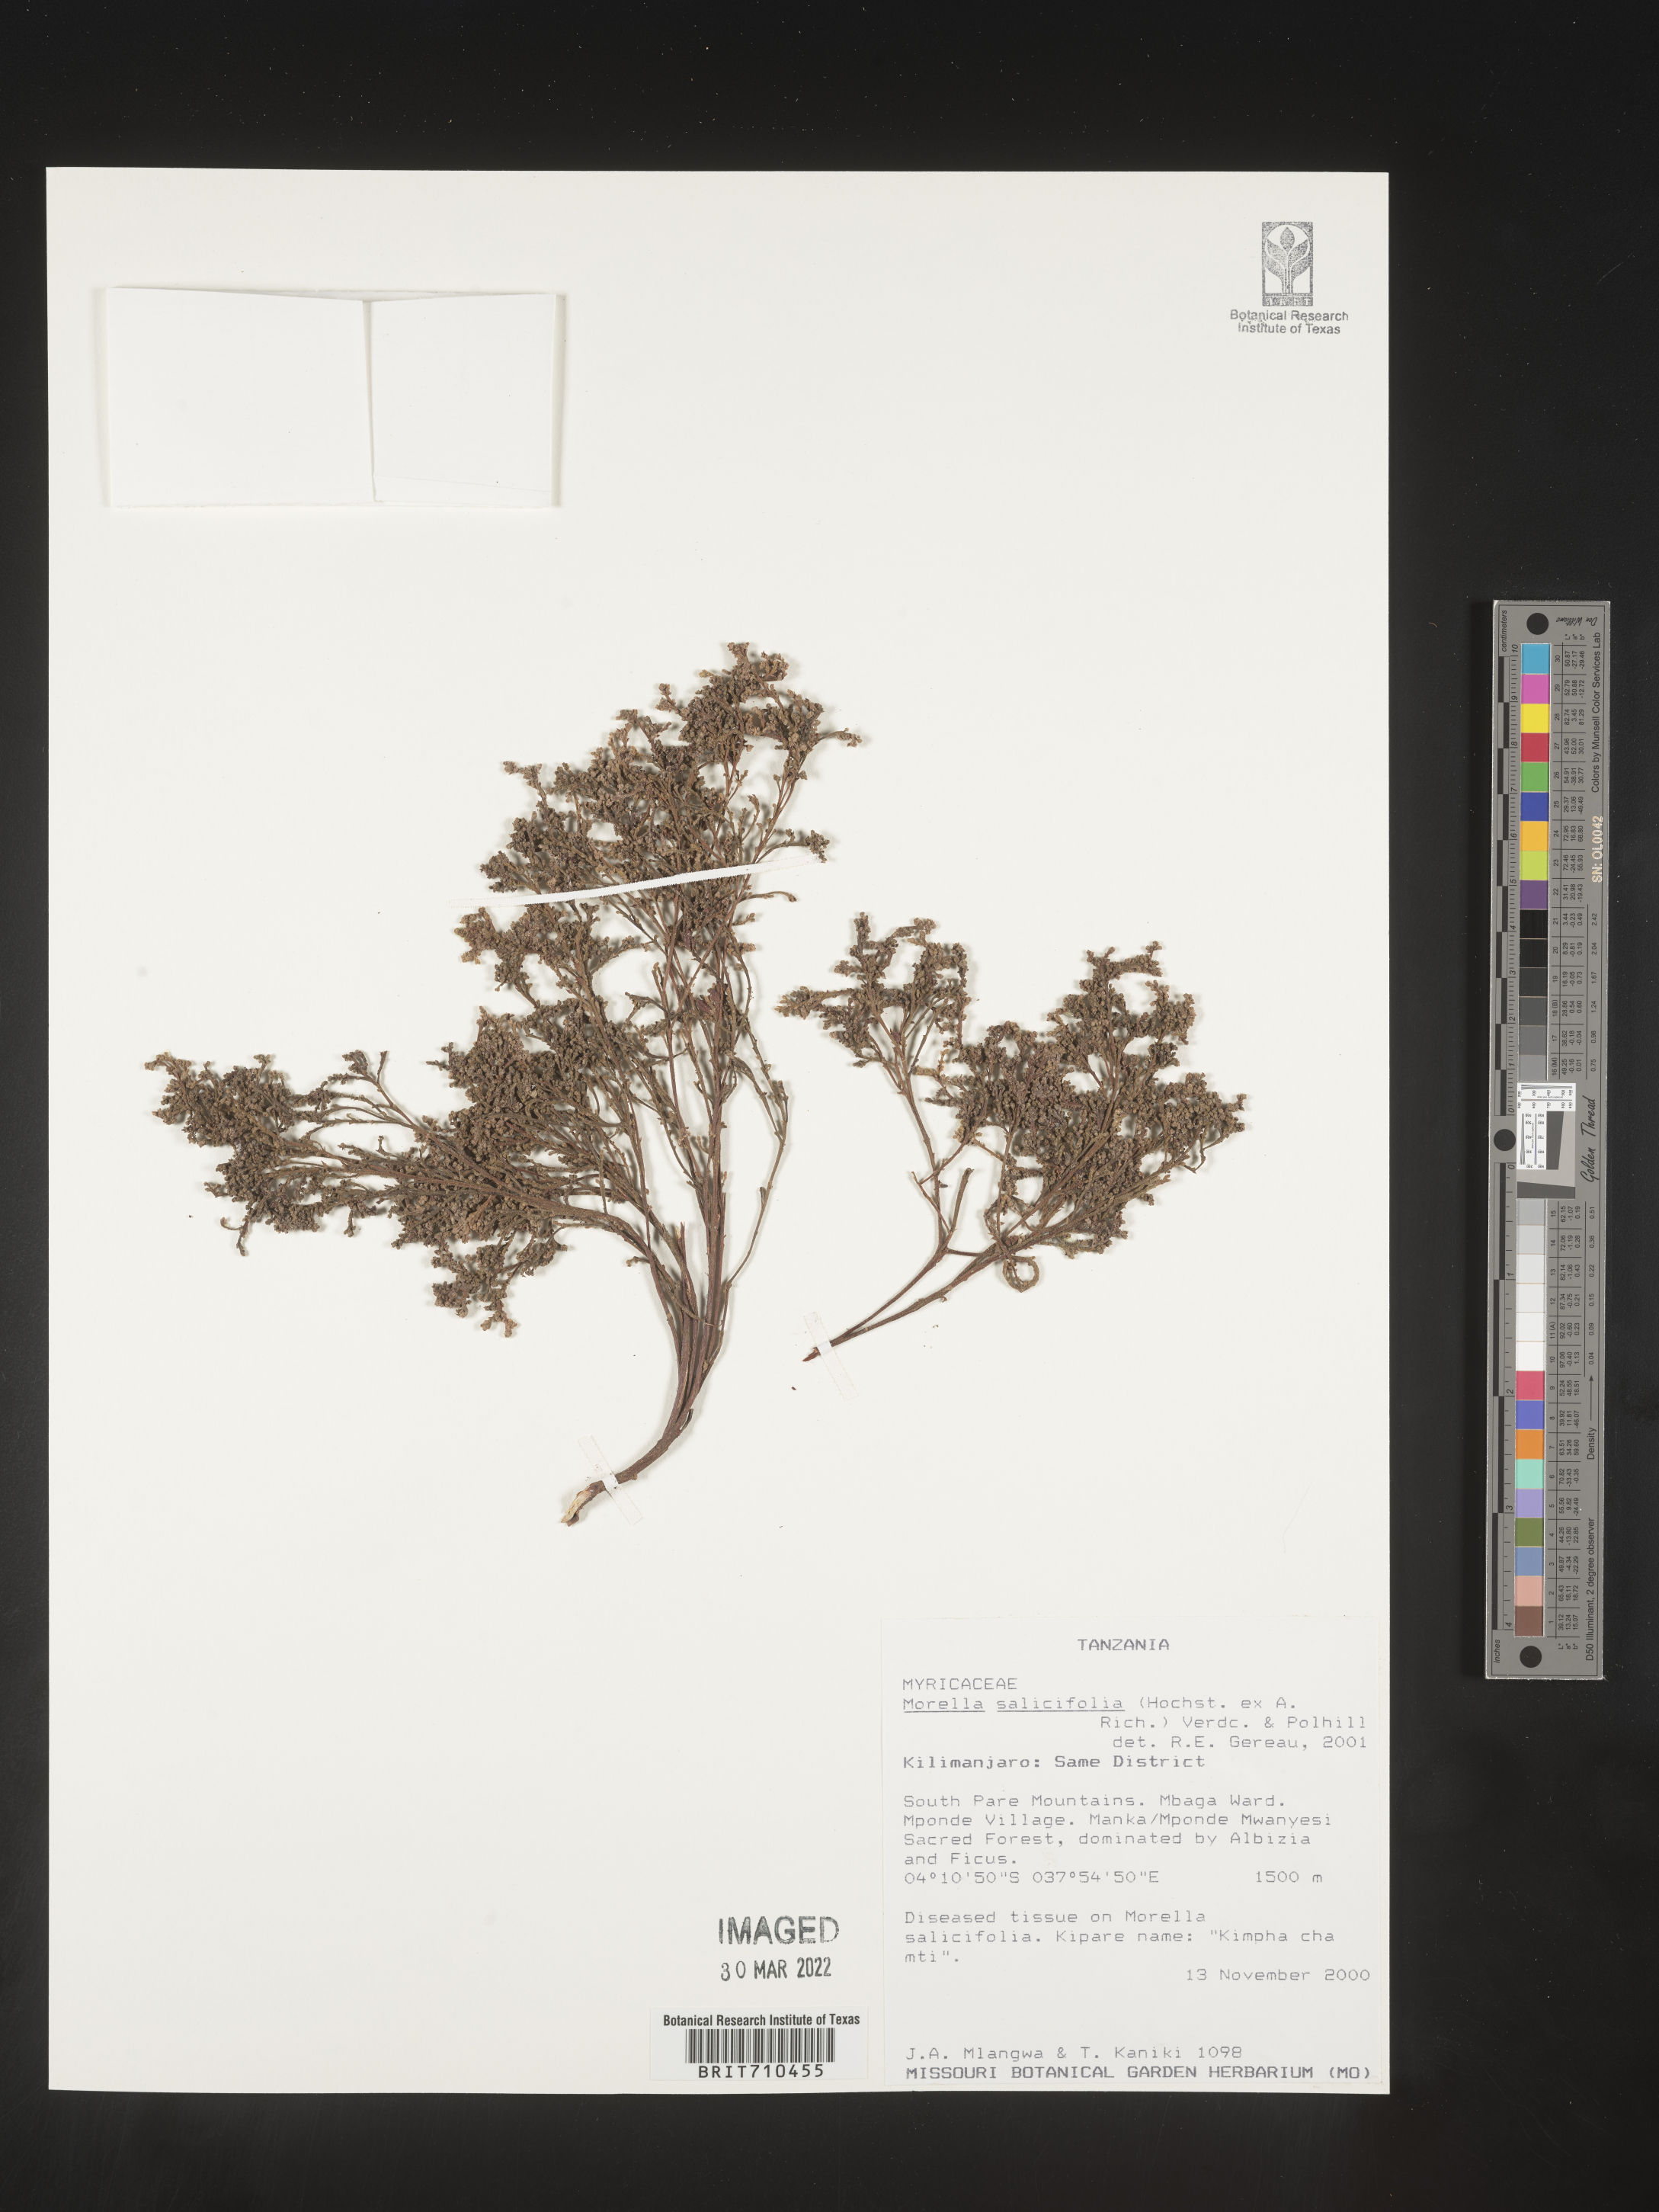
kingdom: Plantae
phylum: Tracheophyta
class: Magnoliopsida
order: Fagales
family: Myricaceae
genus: Morella
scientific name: Morella
